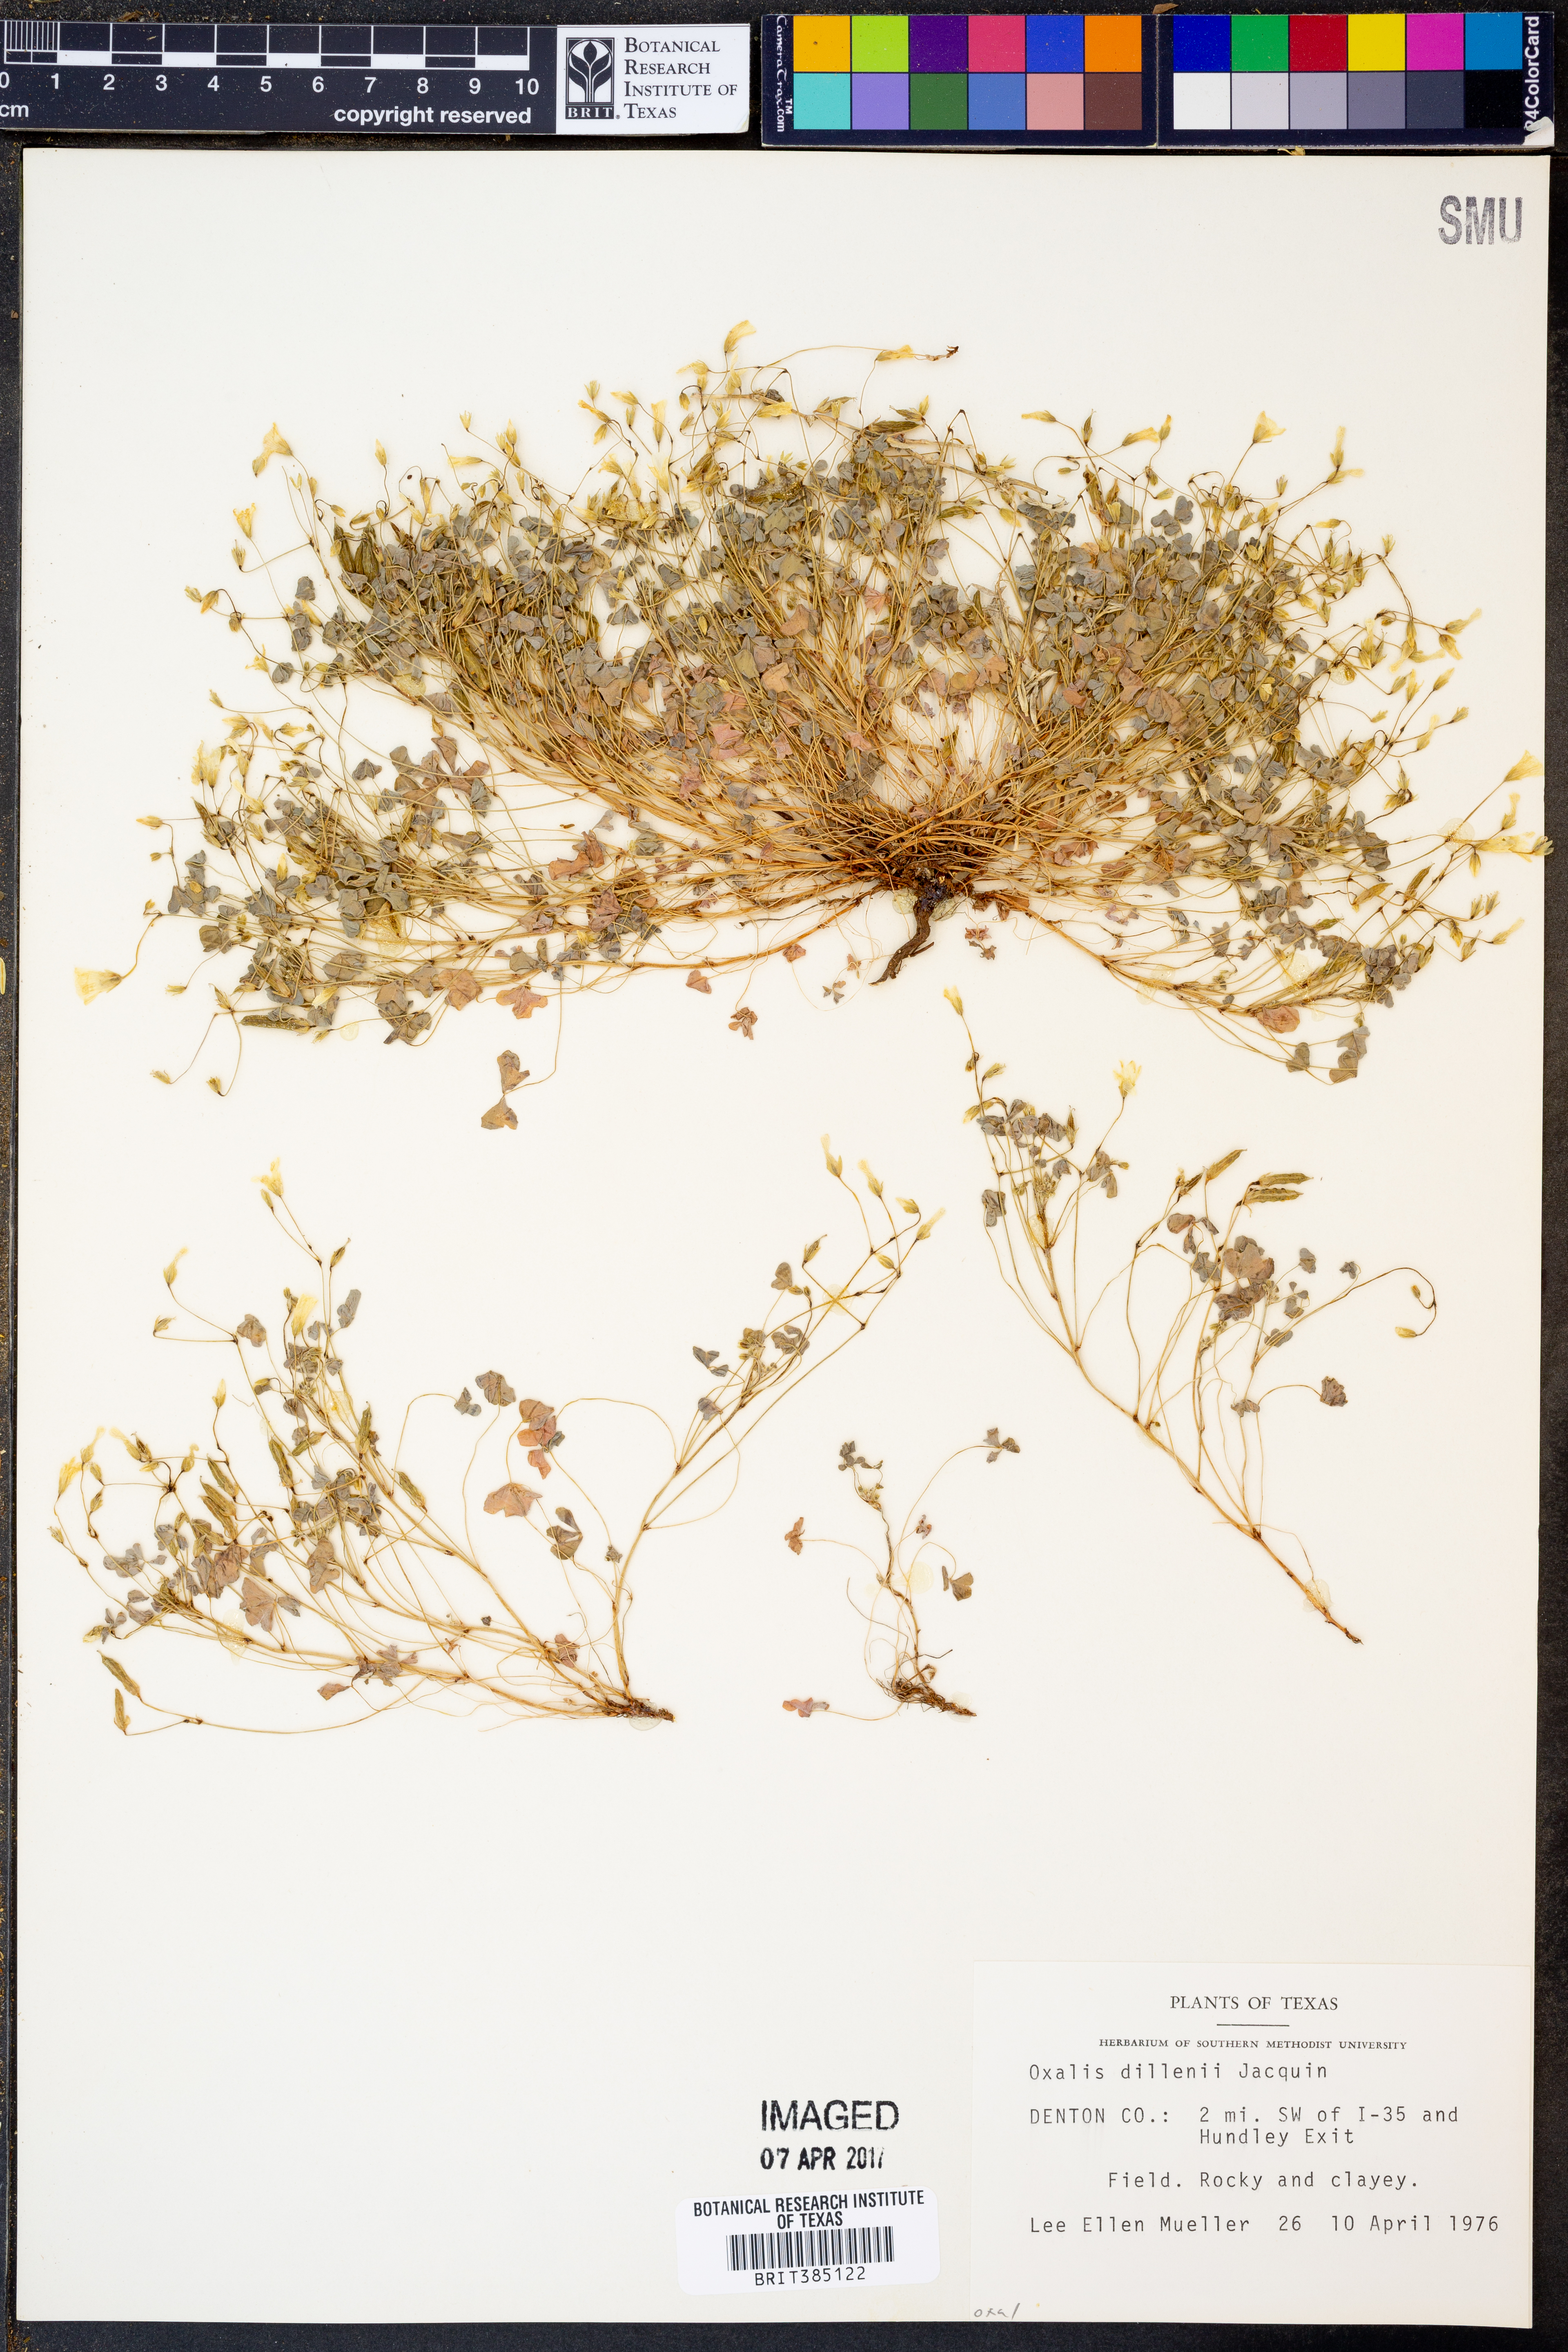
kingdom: Plantae
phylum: Tracheophyta
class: Magnoliopsida
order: Oxalidales
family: Oxalidaceae
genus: Oxalis
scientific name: Oxalis dillenii
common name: Sussex yellow-sorrel
